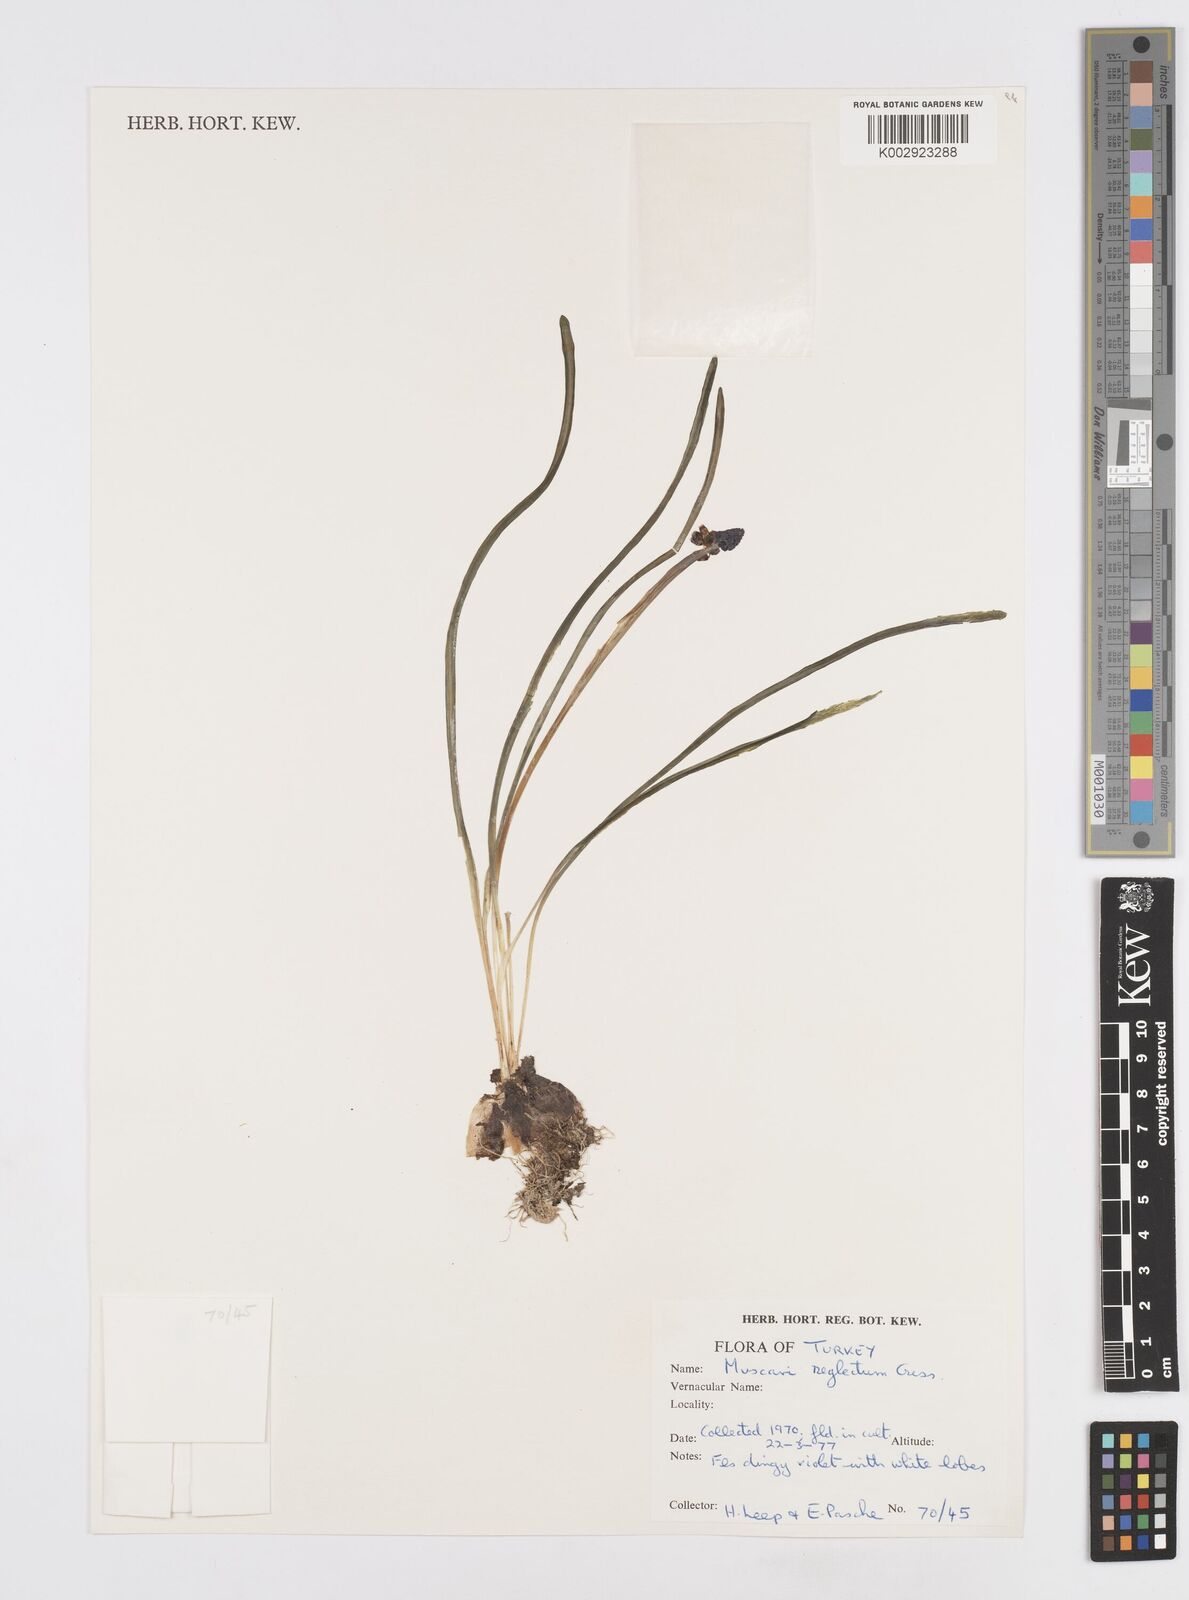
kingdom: Plantae
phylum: Tracheophyta
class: Liliopsida
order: Asparagales
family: Asparagaceae
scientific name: Asparagaceae
